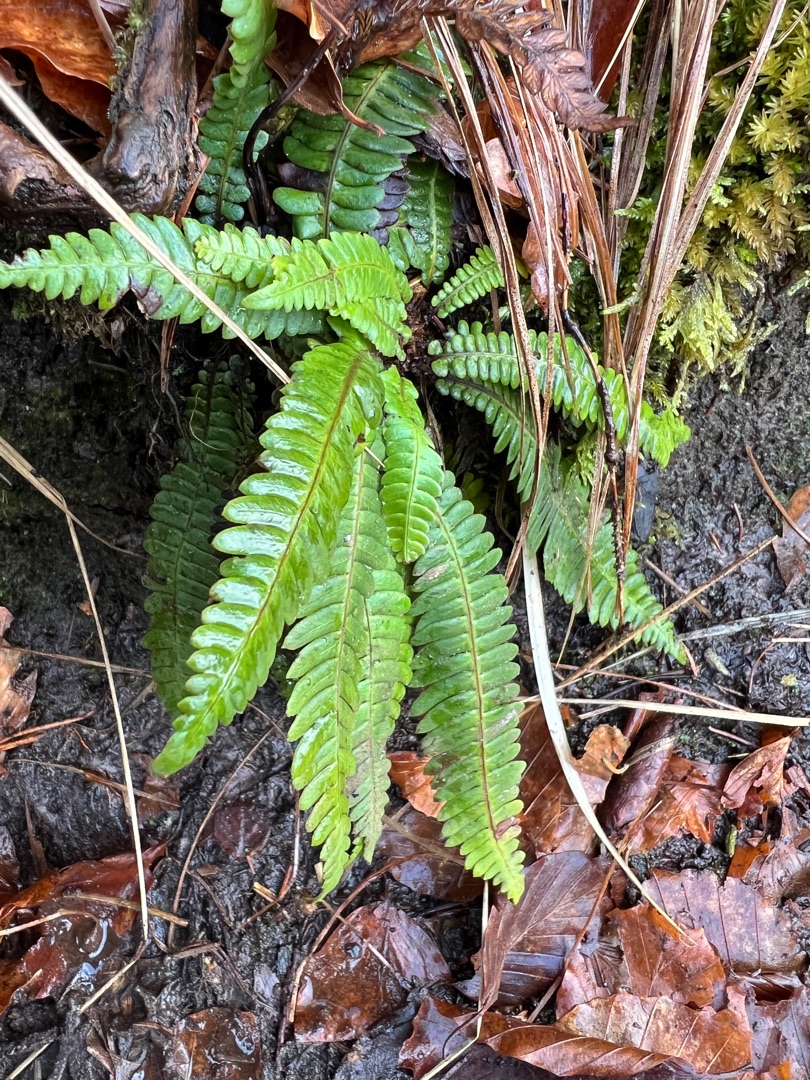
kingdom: Plantae
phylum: Tracheophyta
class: Polypodiopsida
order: Polypodiales
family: Blechnaceae
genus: Struthiopteris
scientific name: Struthiopteris spicant
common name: Kambregne
